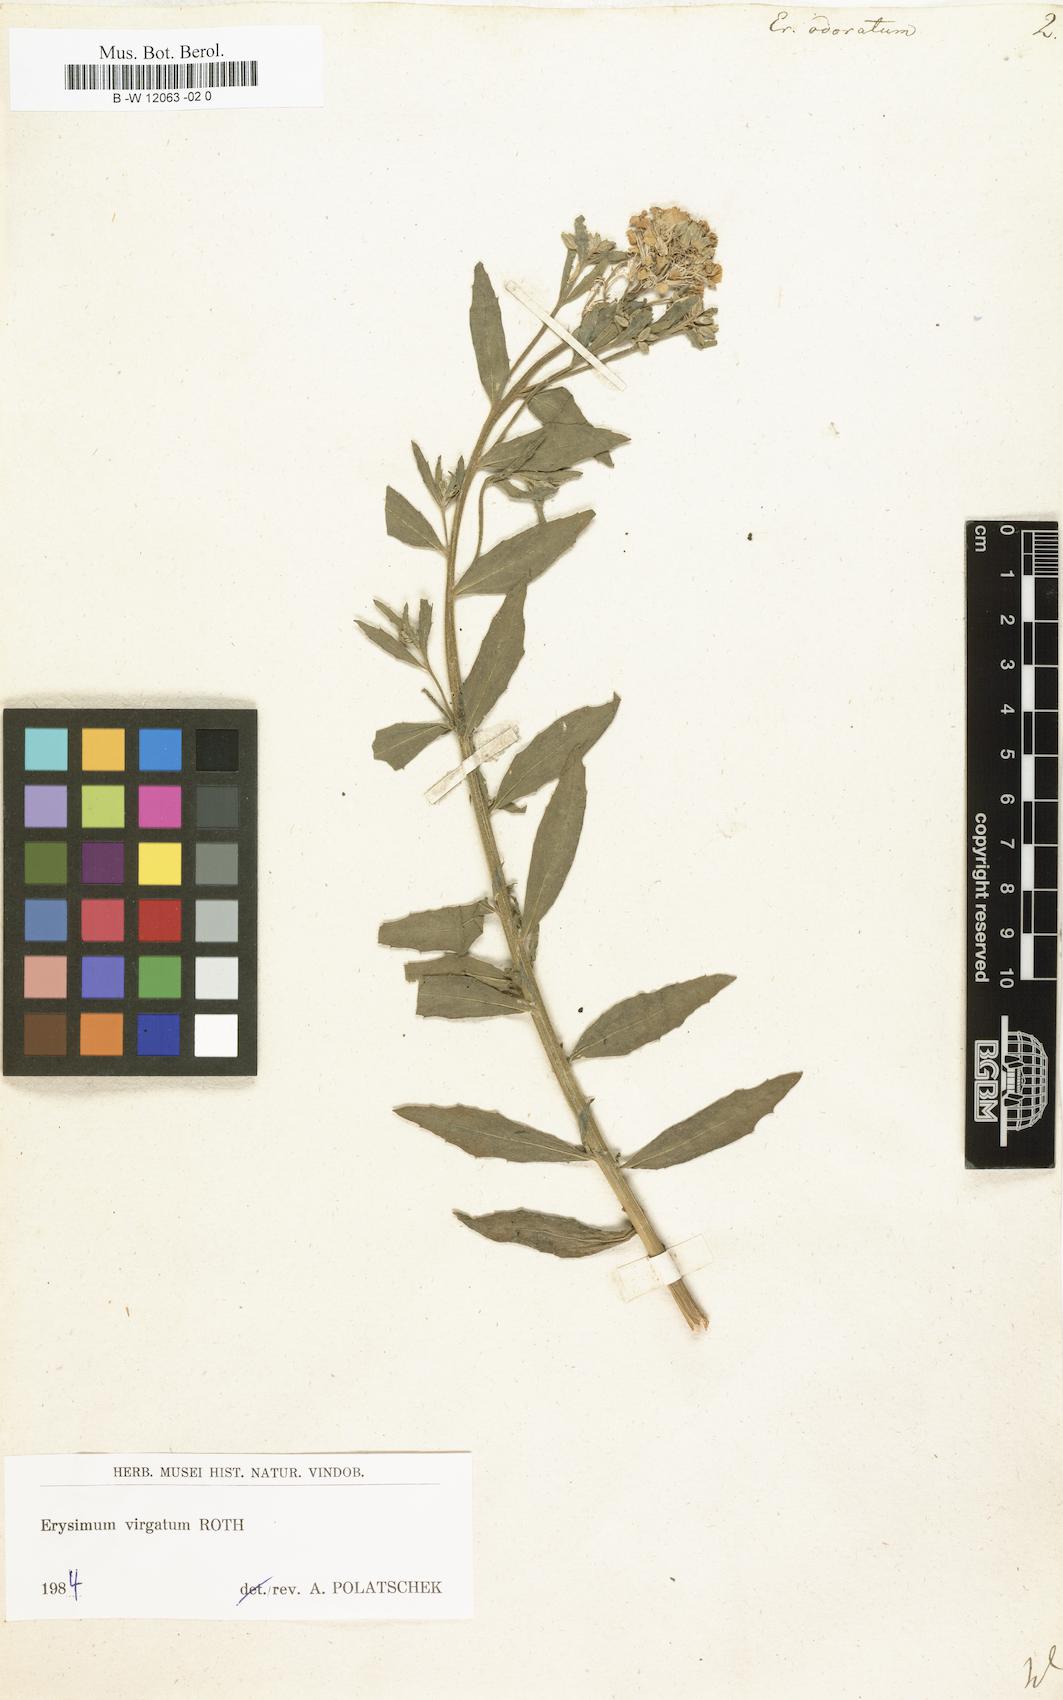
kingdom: Plantae
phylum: Tracheophyta
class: Magnoliopsida
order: Brassicales
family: Brassicaceae
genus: Erysimum
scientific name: Erysimum odoratum
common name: Smelly wallflower
